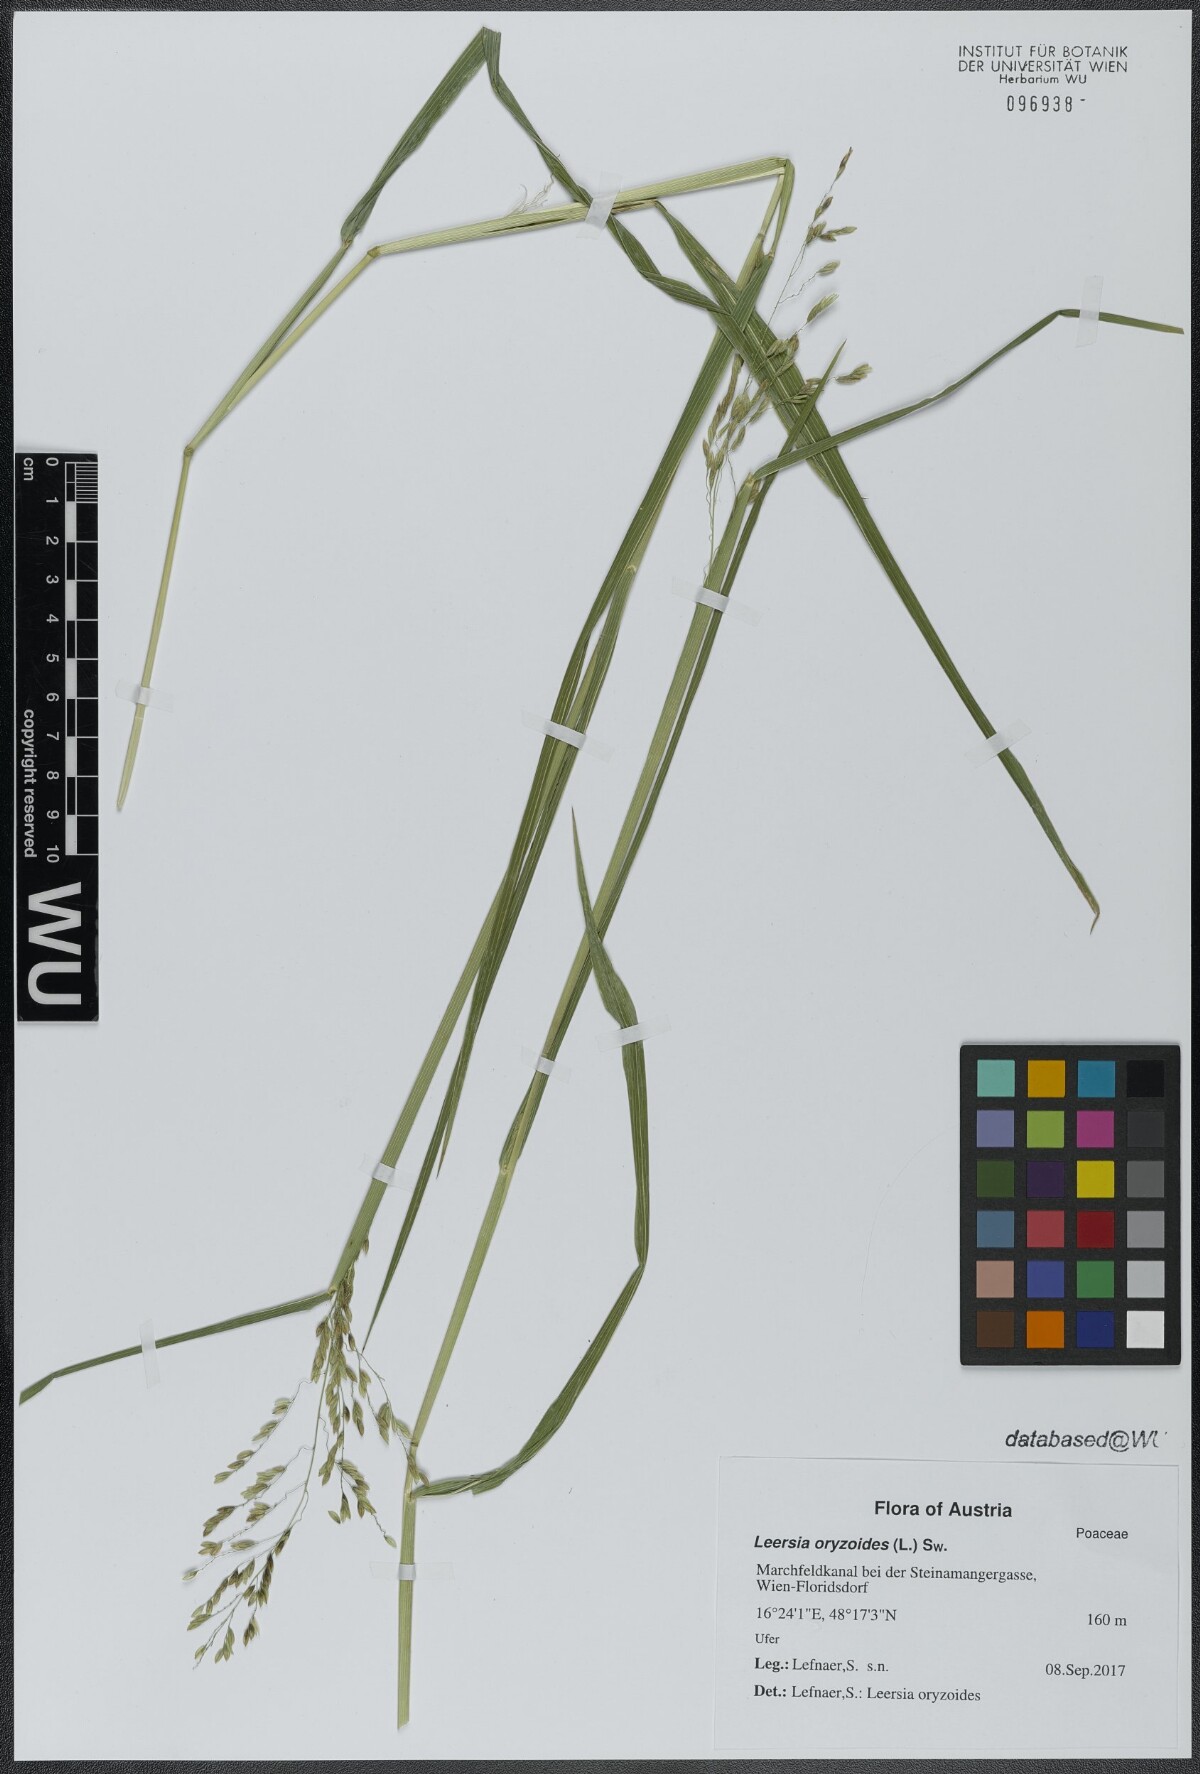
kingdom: Plantae
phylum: Tracheophyta
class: Liliopsida
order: Poales
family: Poaceae
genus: Leersia
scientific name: Leersia oryzoides
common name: Cut-grass
